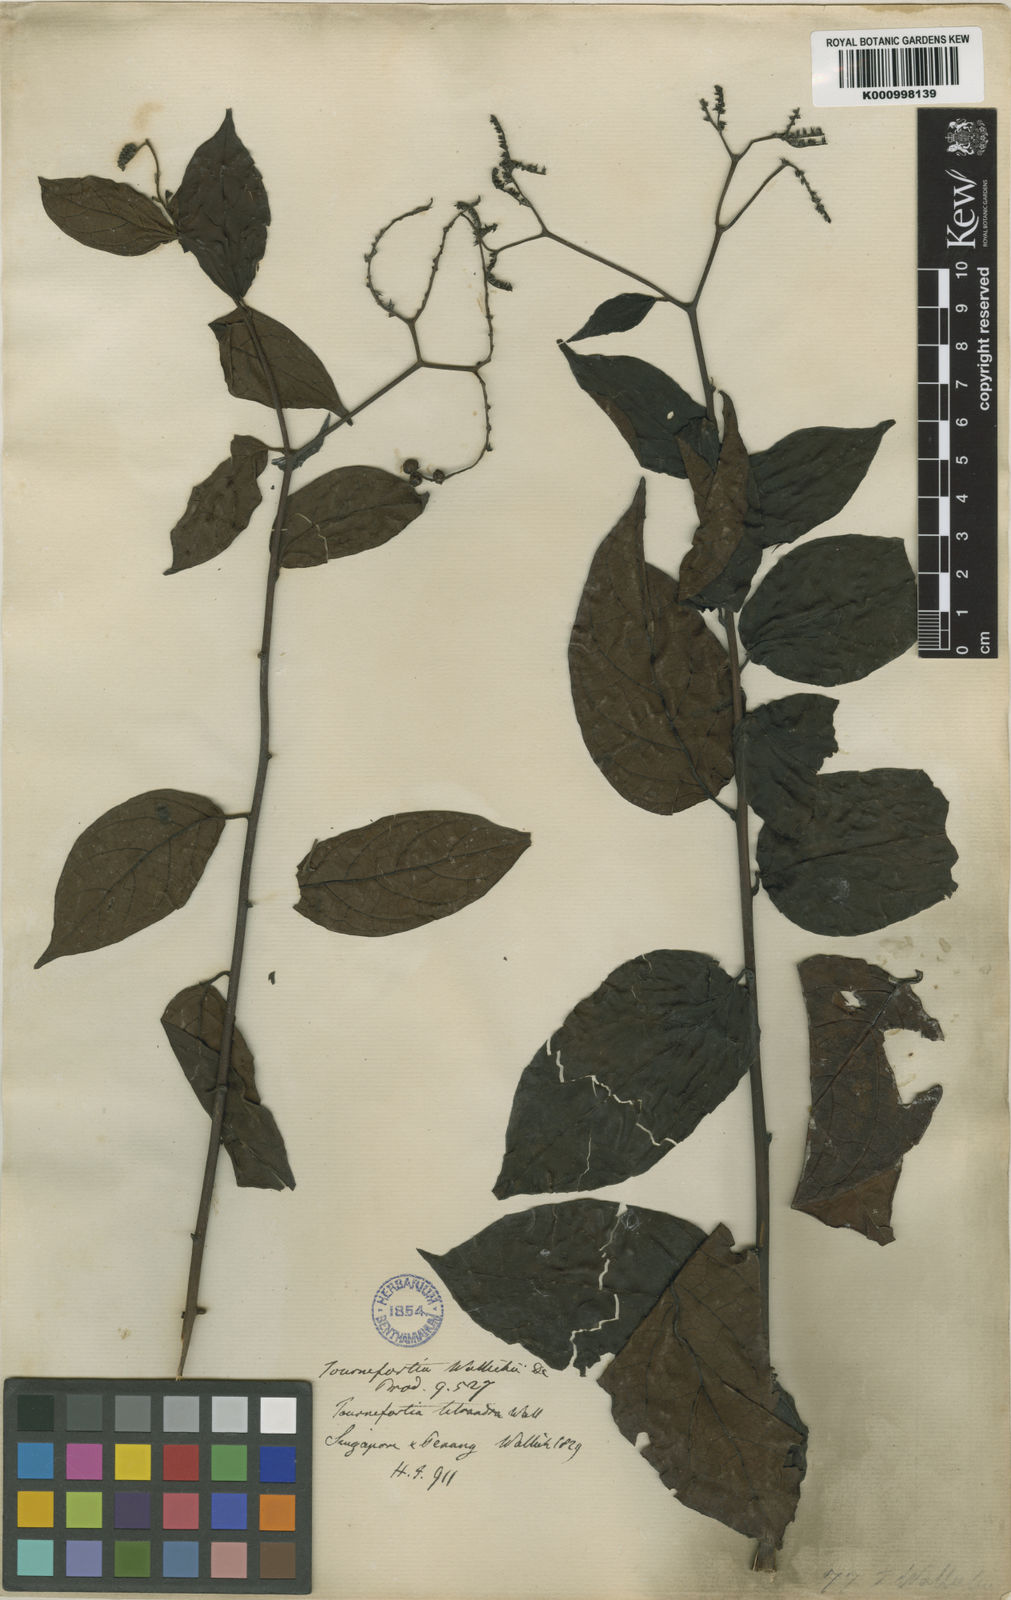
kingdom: Plantae
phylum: Tracheophyta
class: Magnoliopsida
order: Boraginales
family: Heliotropiaceae
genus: Heliotropium
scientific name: Heliotropium biblianum
